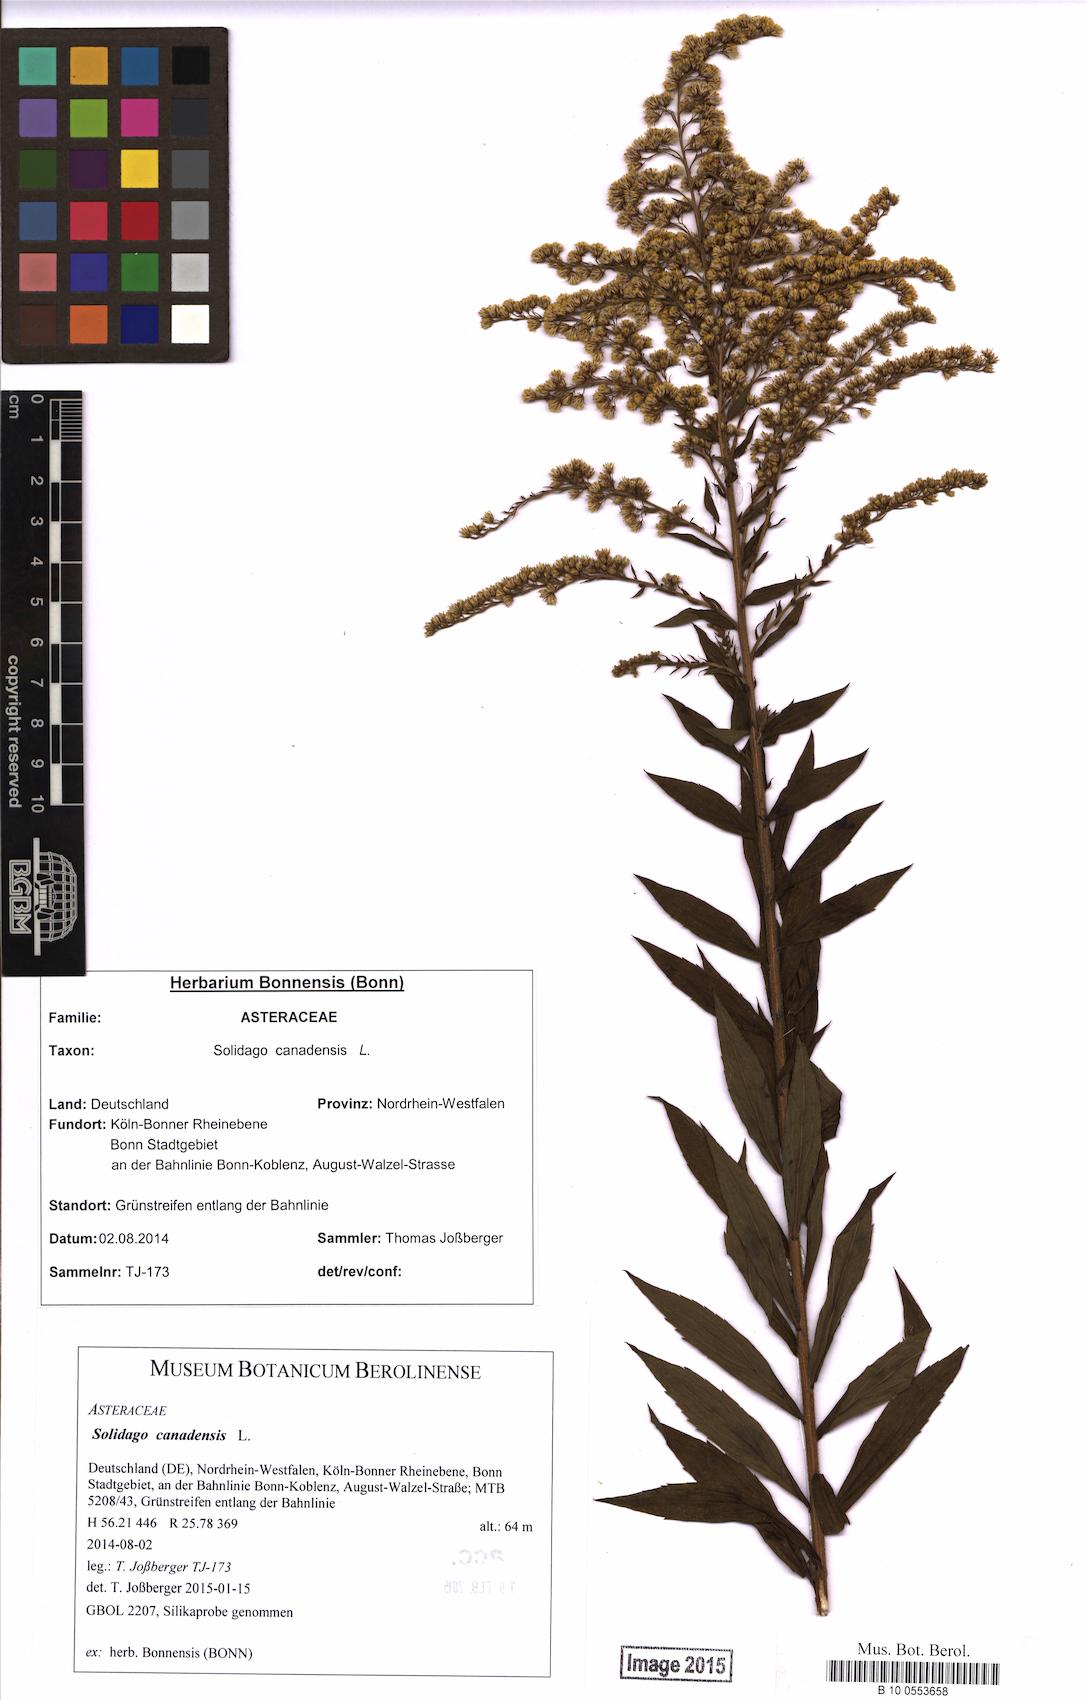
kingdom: Plantae
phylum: Tracheophyta
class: Magnoliopsida
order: Asterales
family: Asteraceae
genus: Solidago
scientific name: Solidago canadensis
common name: Canada goldenrod
